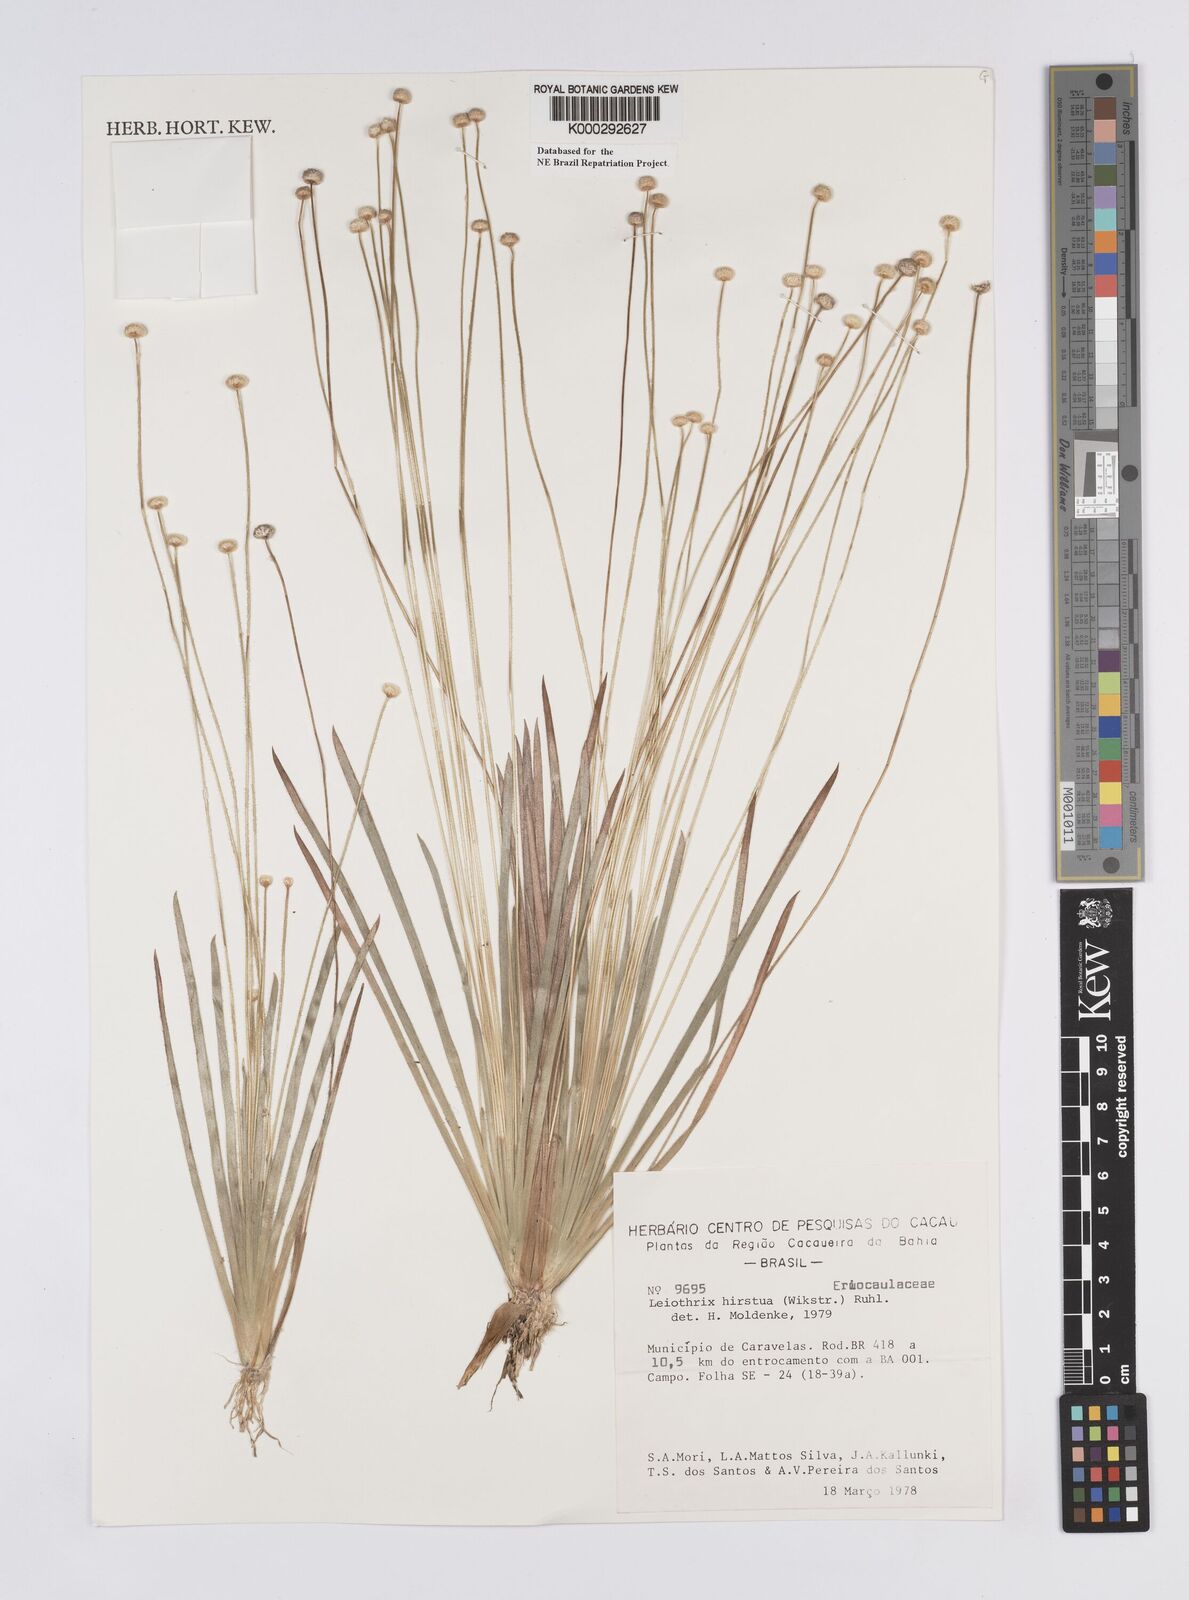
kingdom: Plantae
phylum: Tracheophyta
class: Liliopsida
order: Poales
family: Eriocaulaceae
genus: Leiothrix
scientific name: Leiothrix hirsuta
